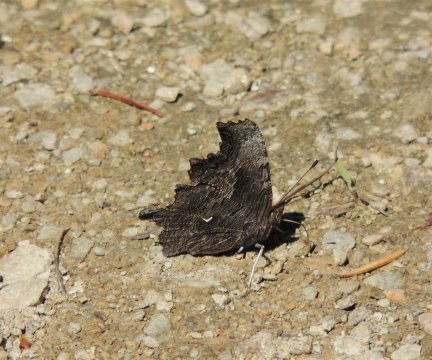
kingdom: Animalia
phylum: Arthropoda
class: Insecta
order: Lepidoptera
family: Nymphalidae
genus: Polygonia
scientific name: Polygonia gracilis
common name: Hoary Comma
